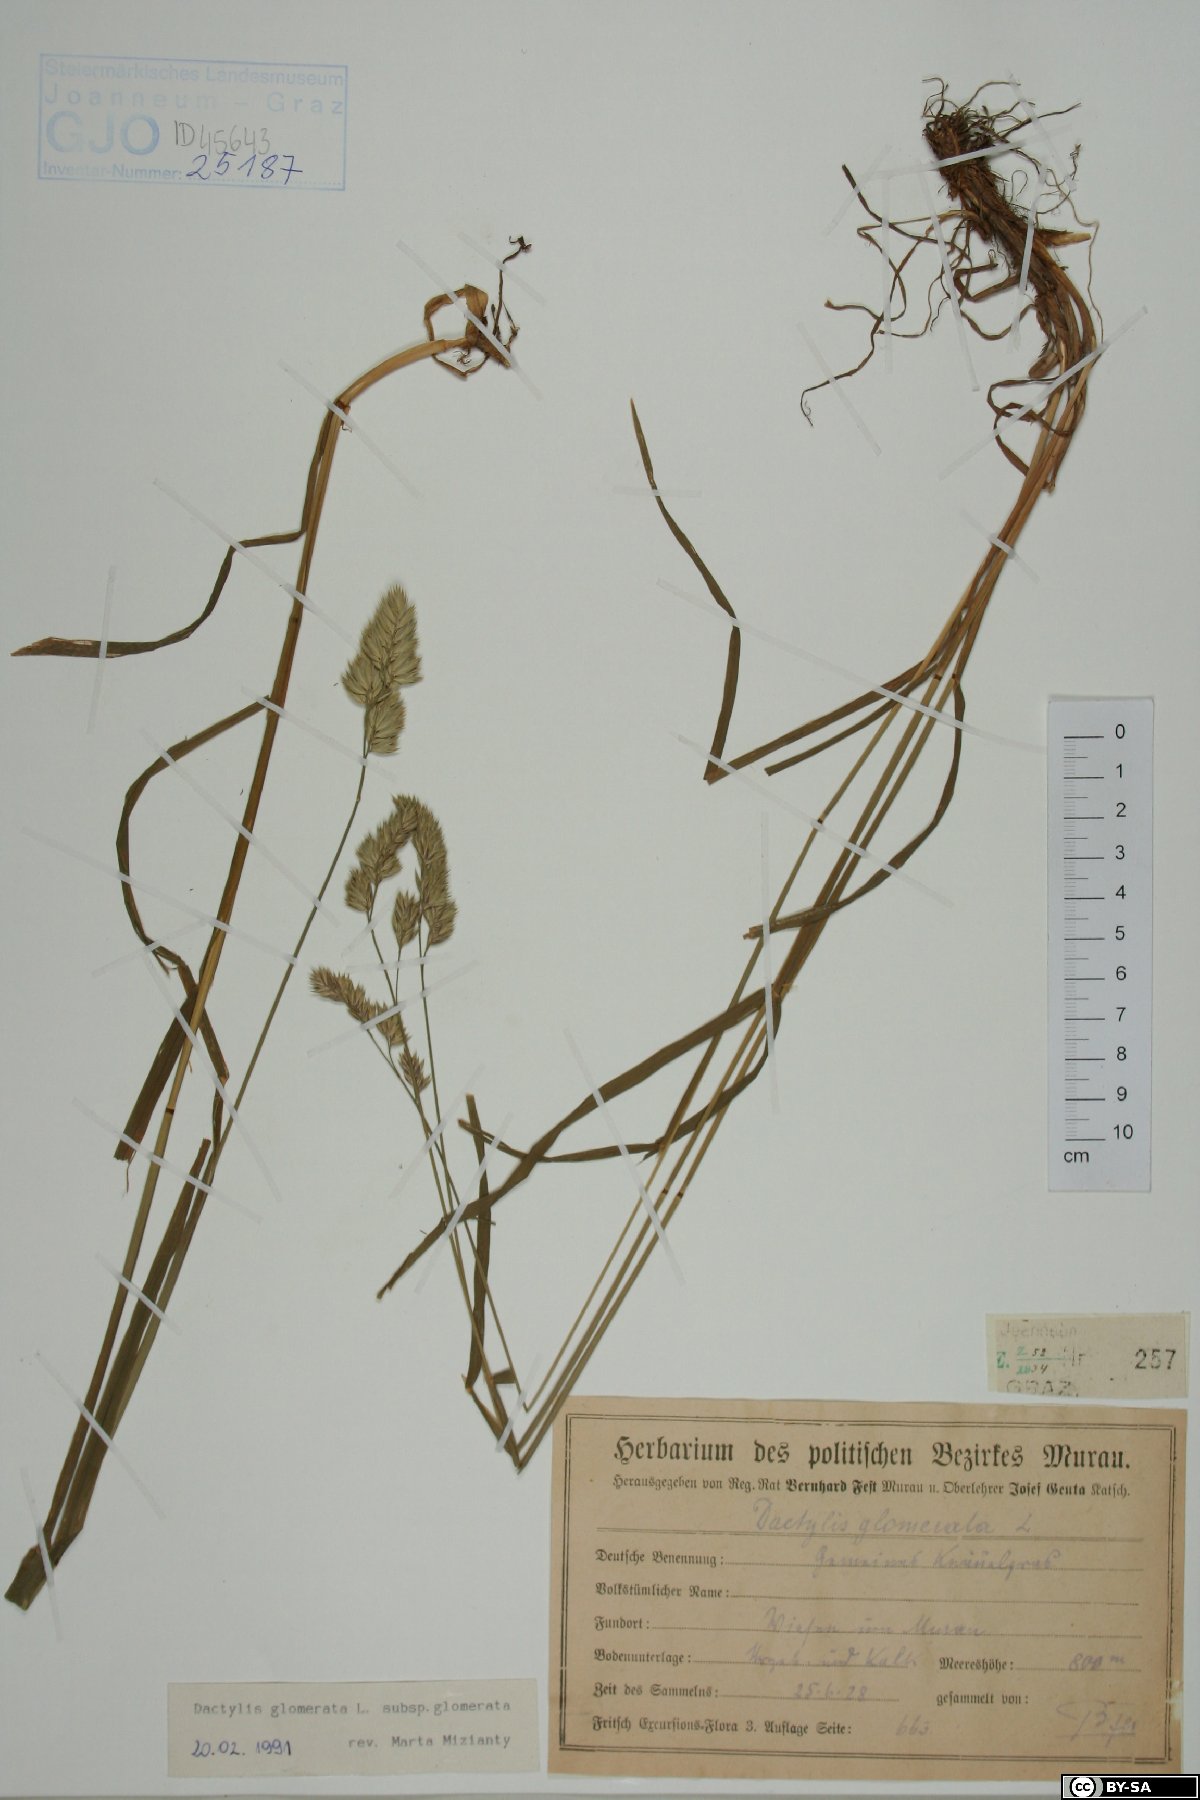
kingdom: Plantae
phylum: Tracheophyta
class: Liliopsida
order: Poales
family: Poaceae
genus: Dactylis
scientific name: Dactylis glomerata
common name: Orchardgrass
